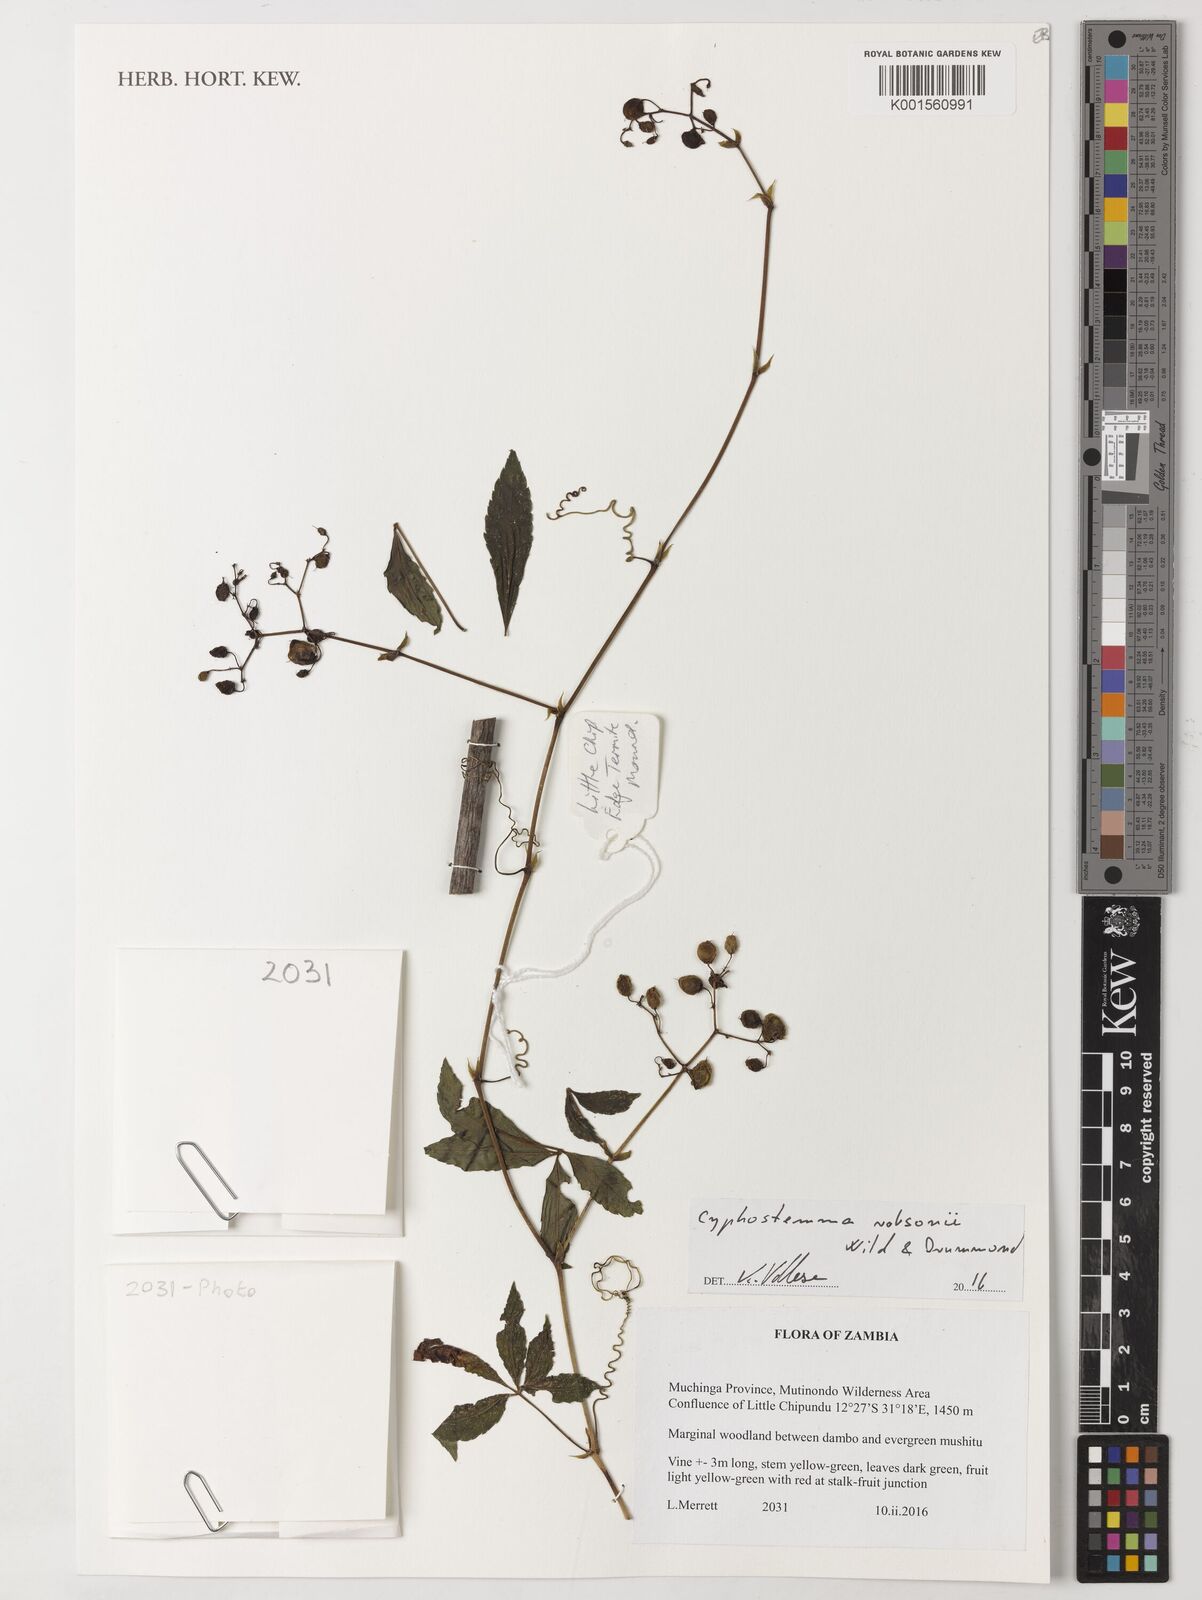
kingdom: Plantae
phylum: Tracheophyta
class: Magnoliopsida
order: Vitales
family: Vitaceae
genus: Cyphostemma
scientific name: Cyphostemma robsonii
